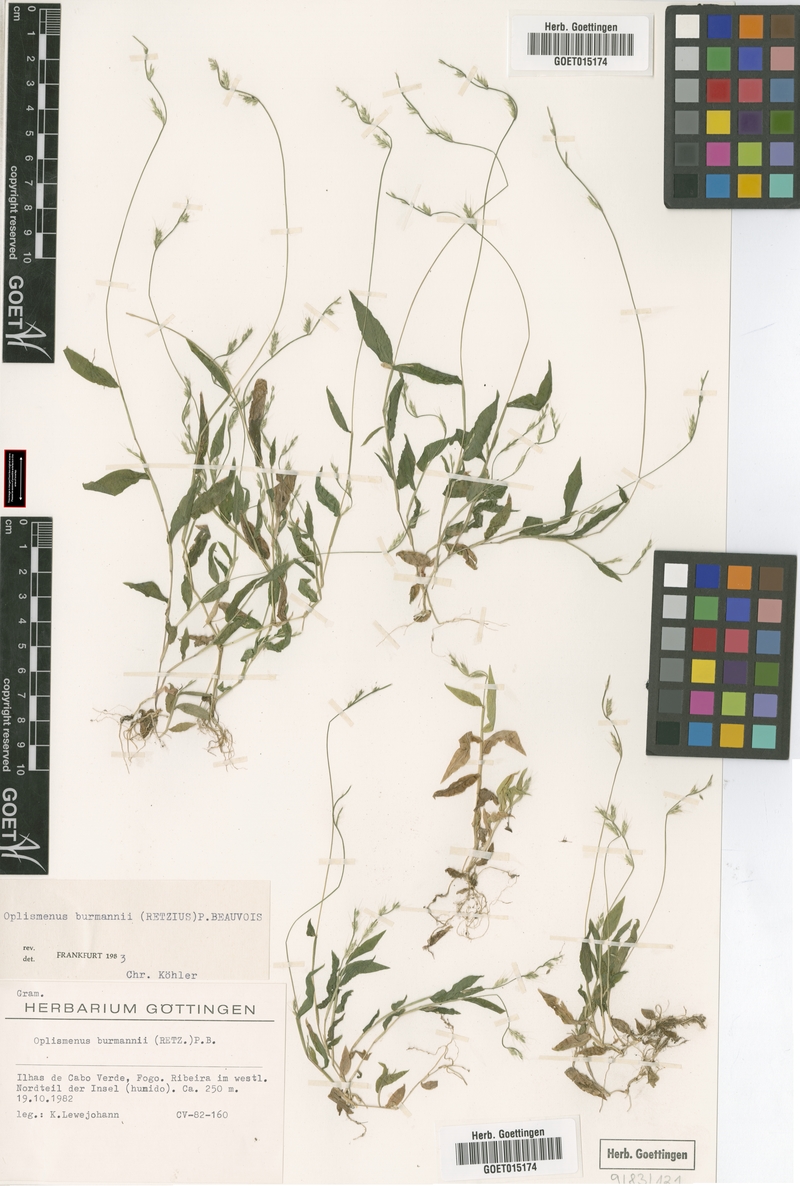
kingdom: Plantae
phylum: Tracheophyta
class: Liliopsida
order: Poales
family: Poaceae
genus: Oplismenus
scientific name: Oplismenus burmanni
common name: Burmann's basketgrass
